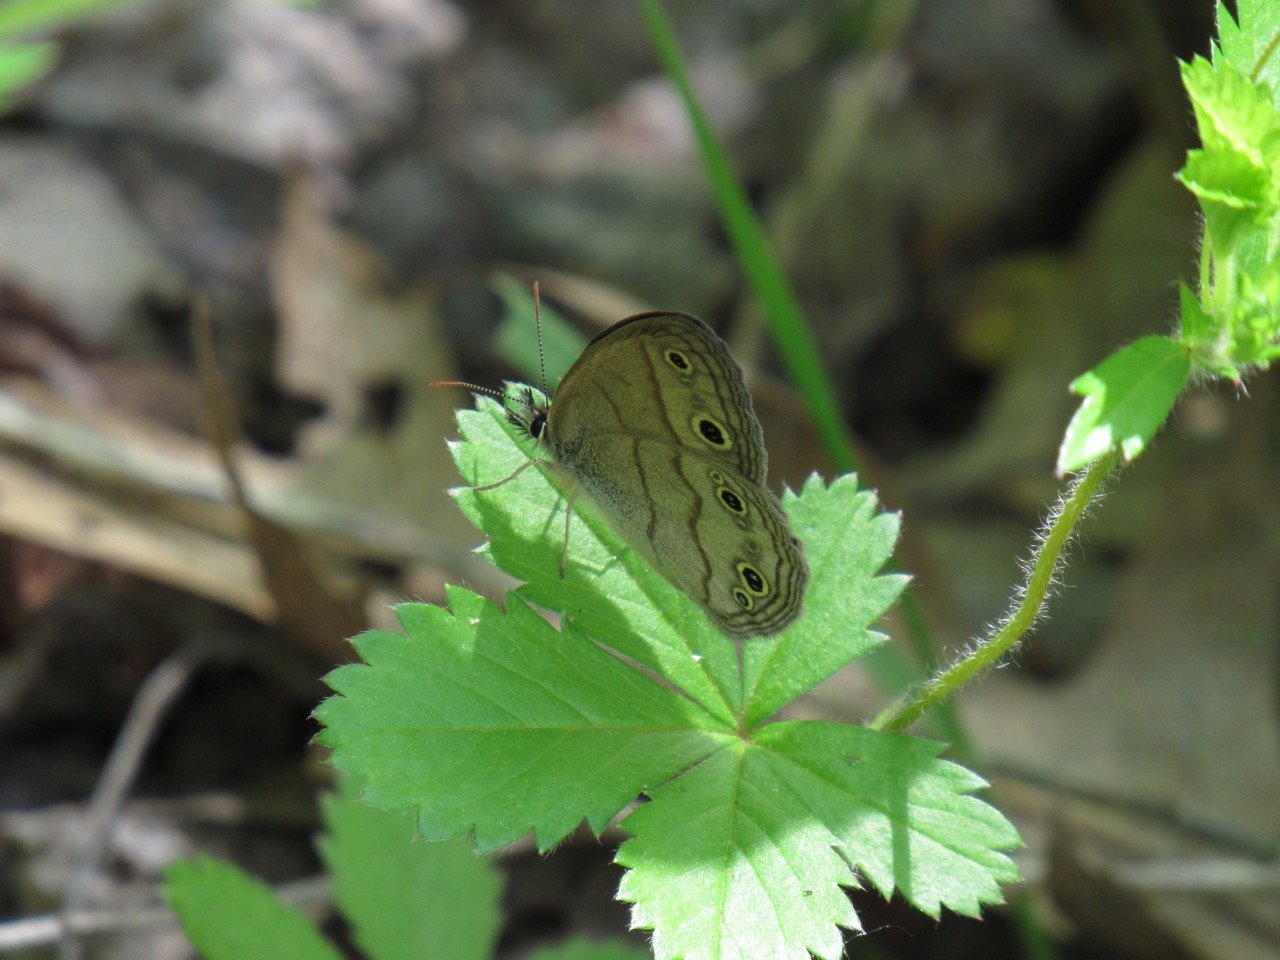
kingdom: Animalia
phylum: Arthropoda
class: Insecta
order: Lepidoptera
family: Nymphalidae
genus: Euptychia
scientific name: Euptychia cymela
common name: Little Wood Satyr
